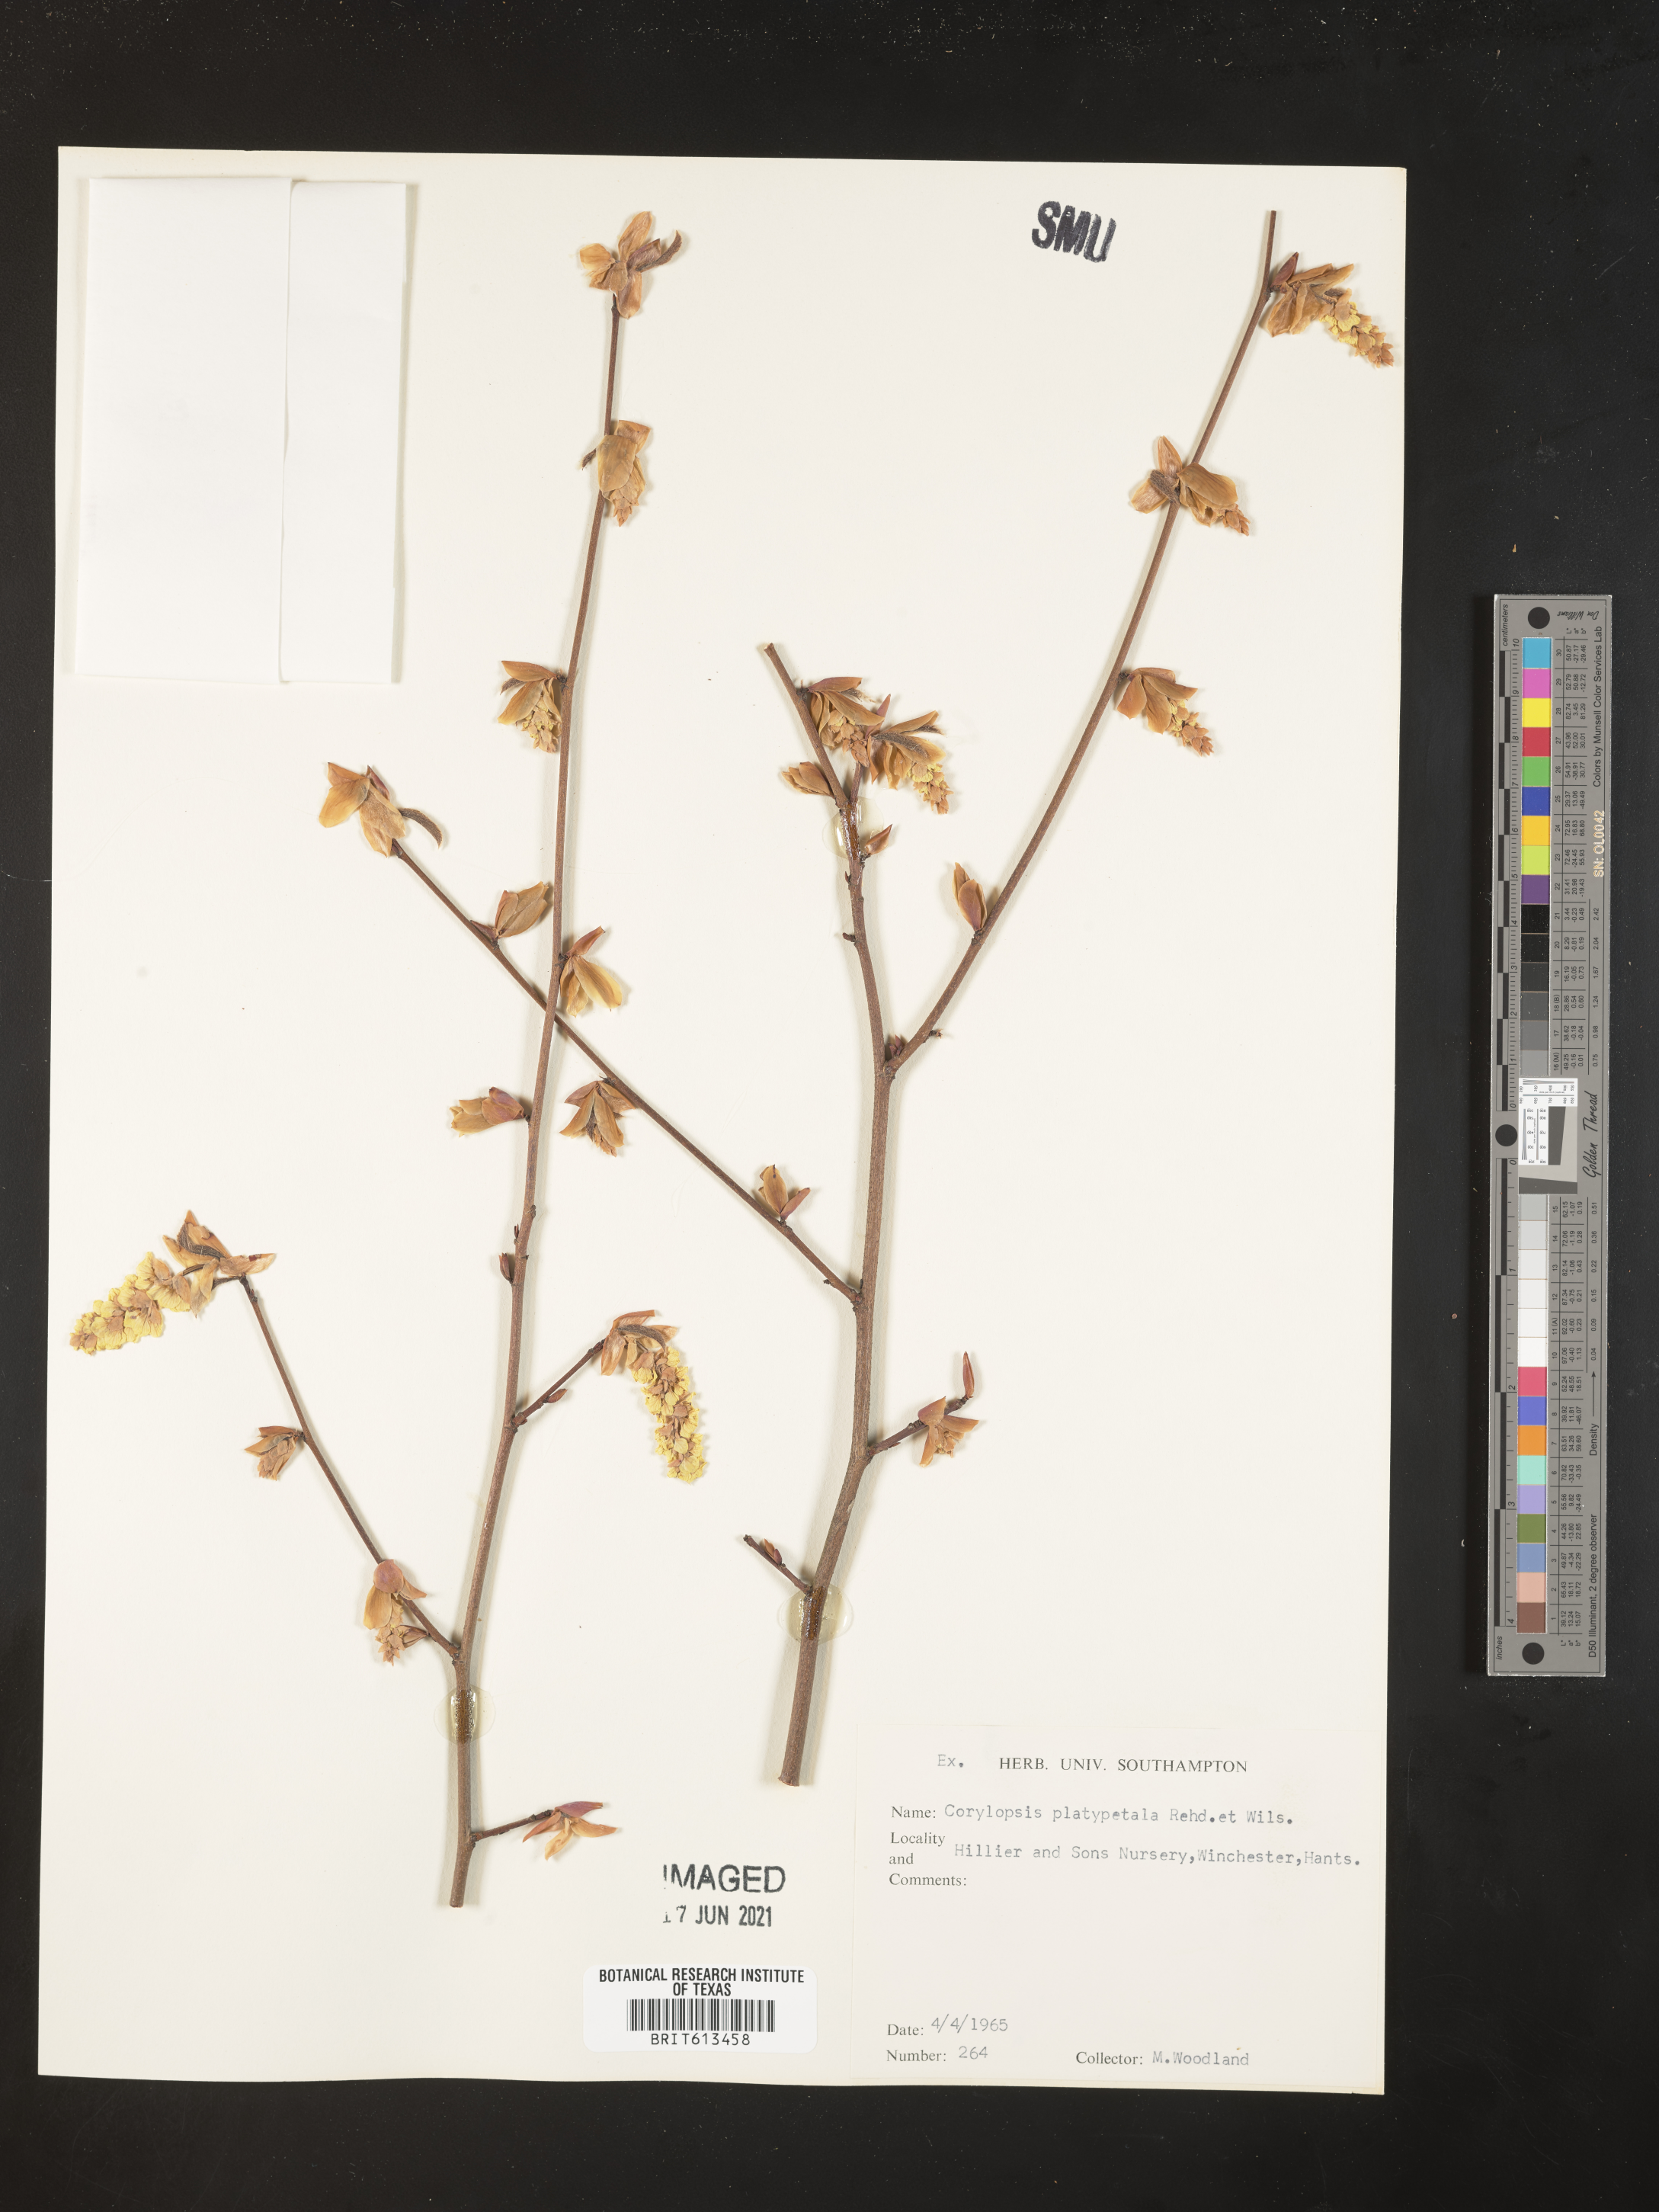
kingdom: Plantae
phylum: Tracheophyta
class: Magnoliopsida
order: Saxifragales
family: Hamamelidaceae
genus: Corylopsis
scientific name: Corylopsis platypetala
